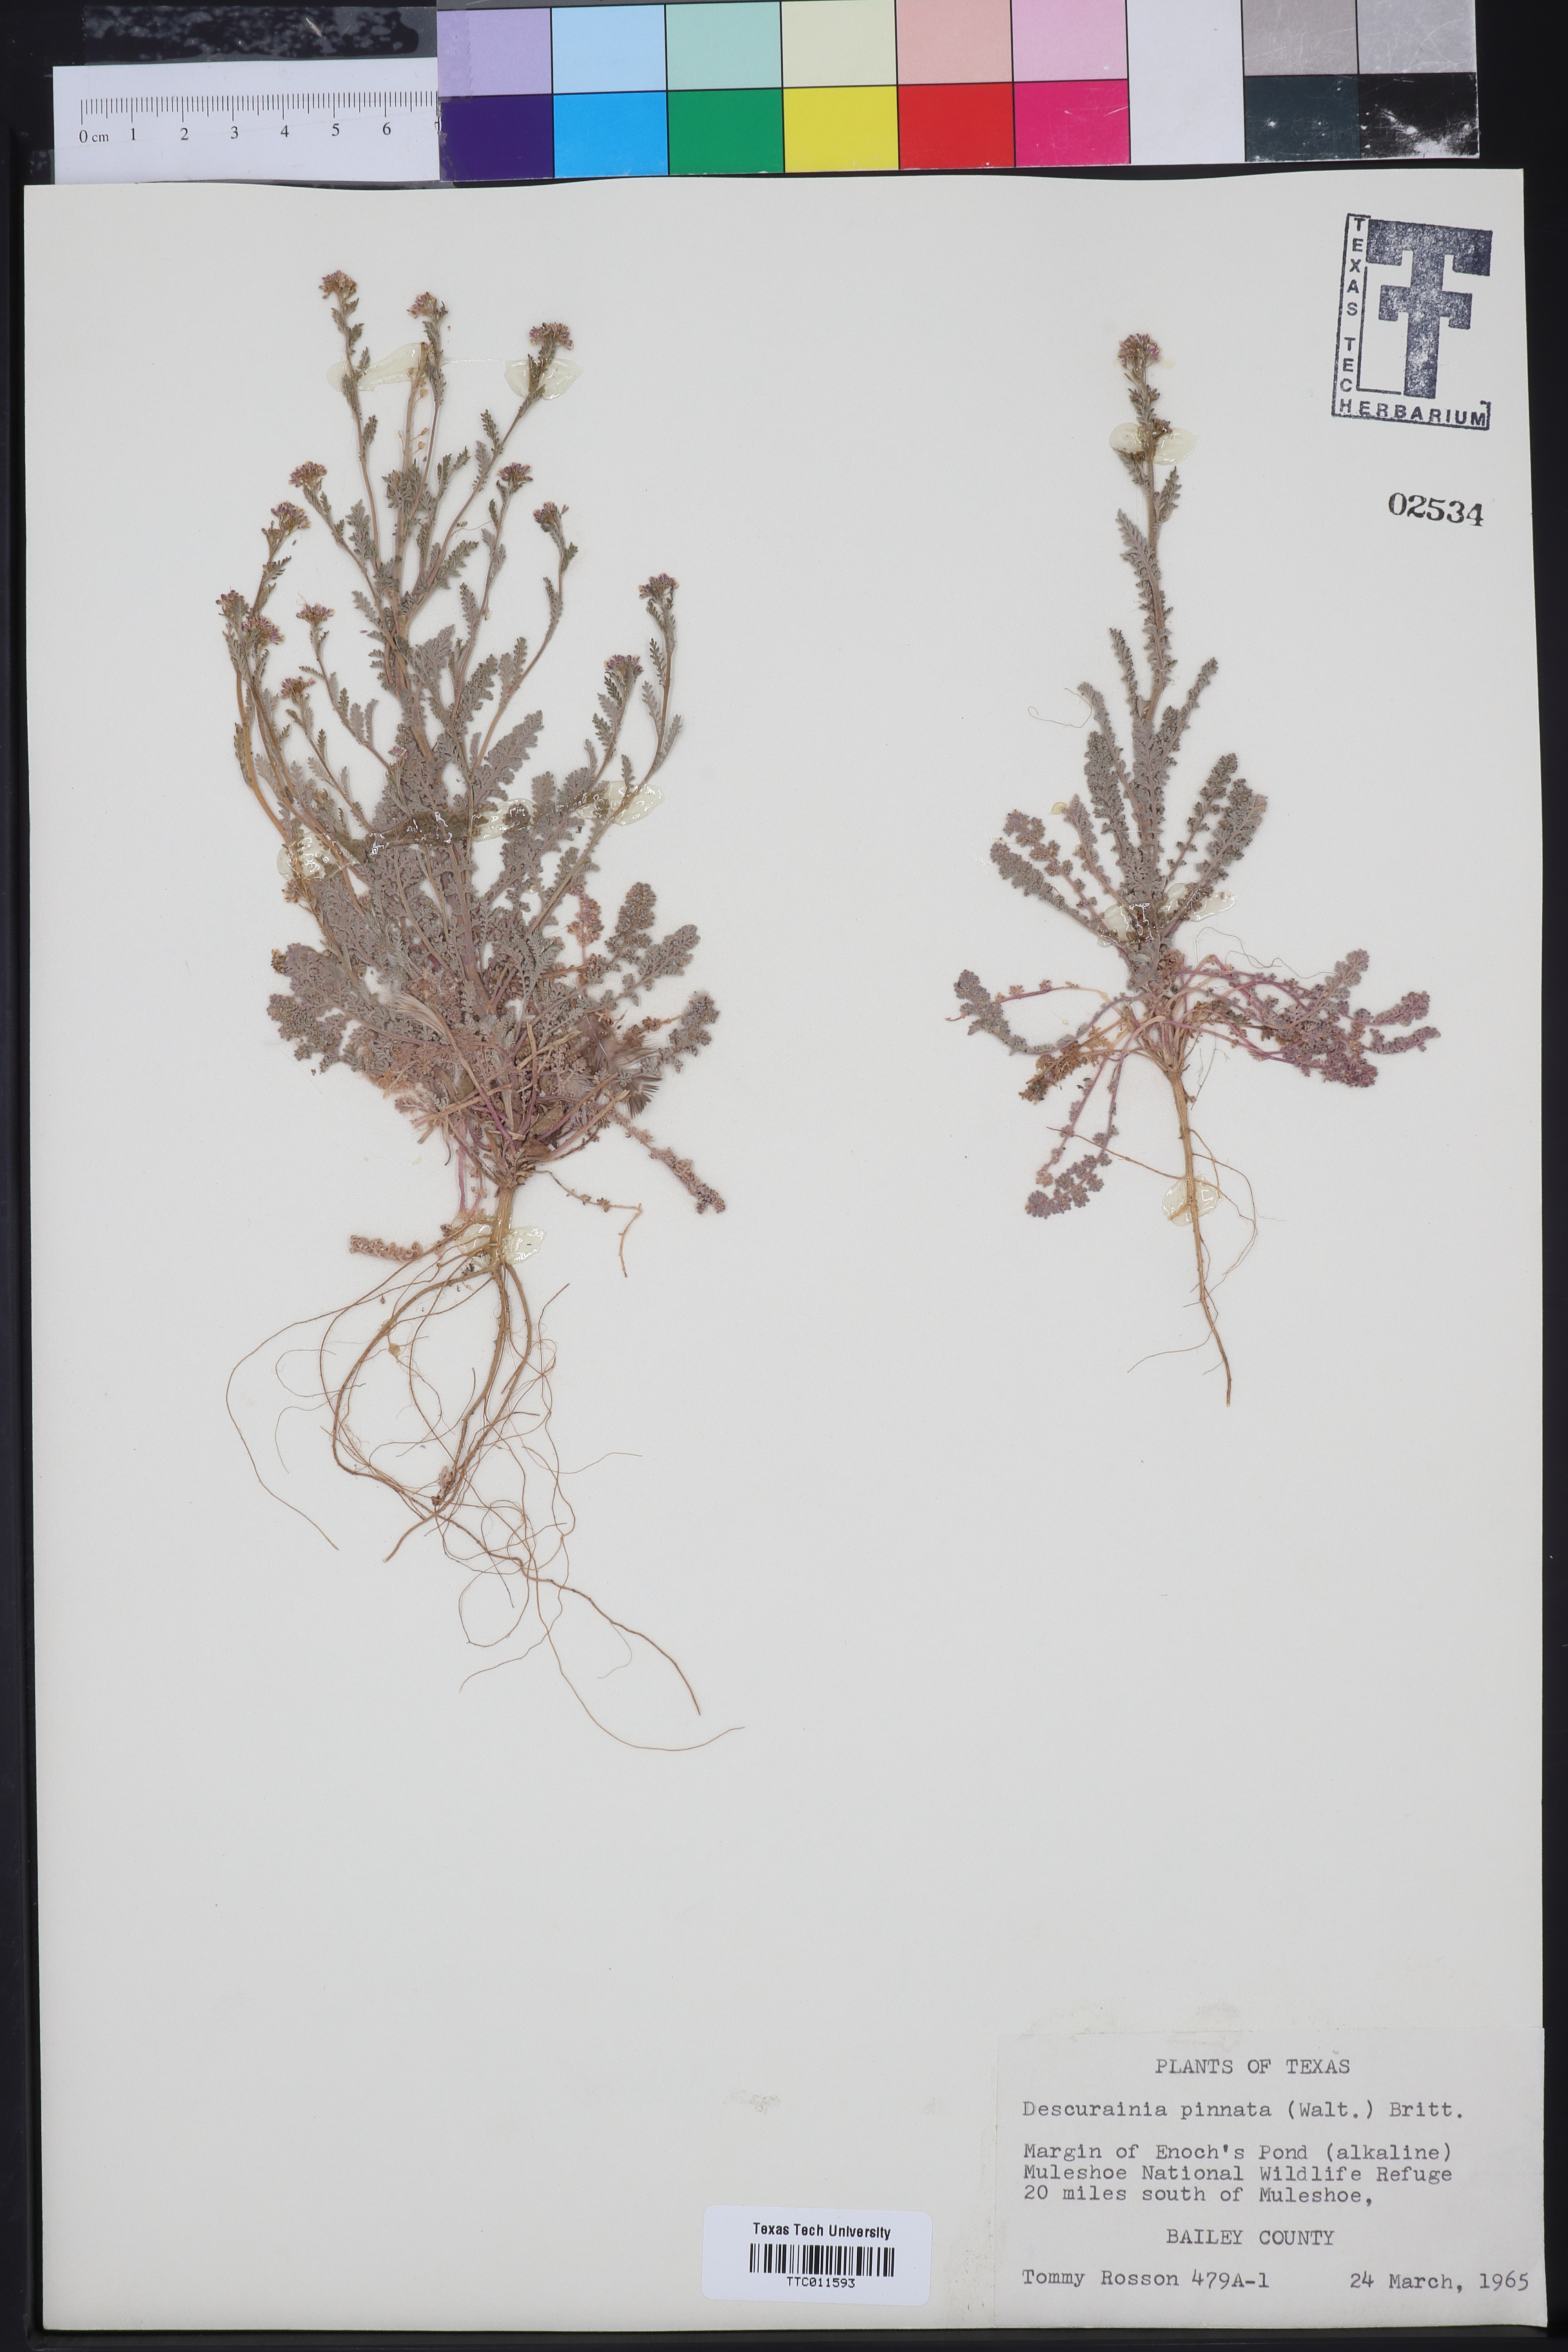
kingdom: Plantae
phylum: Tracheophyta
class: Magnoliopsida
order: Brassicales
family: Brassicaceae
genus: Descurainia
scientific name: Descurainia pinnata
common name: Western tansy mustard
